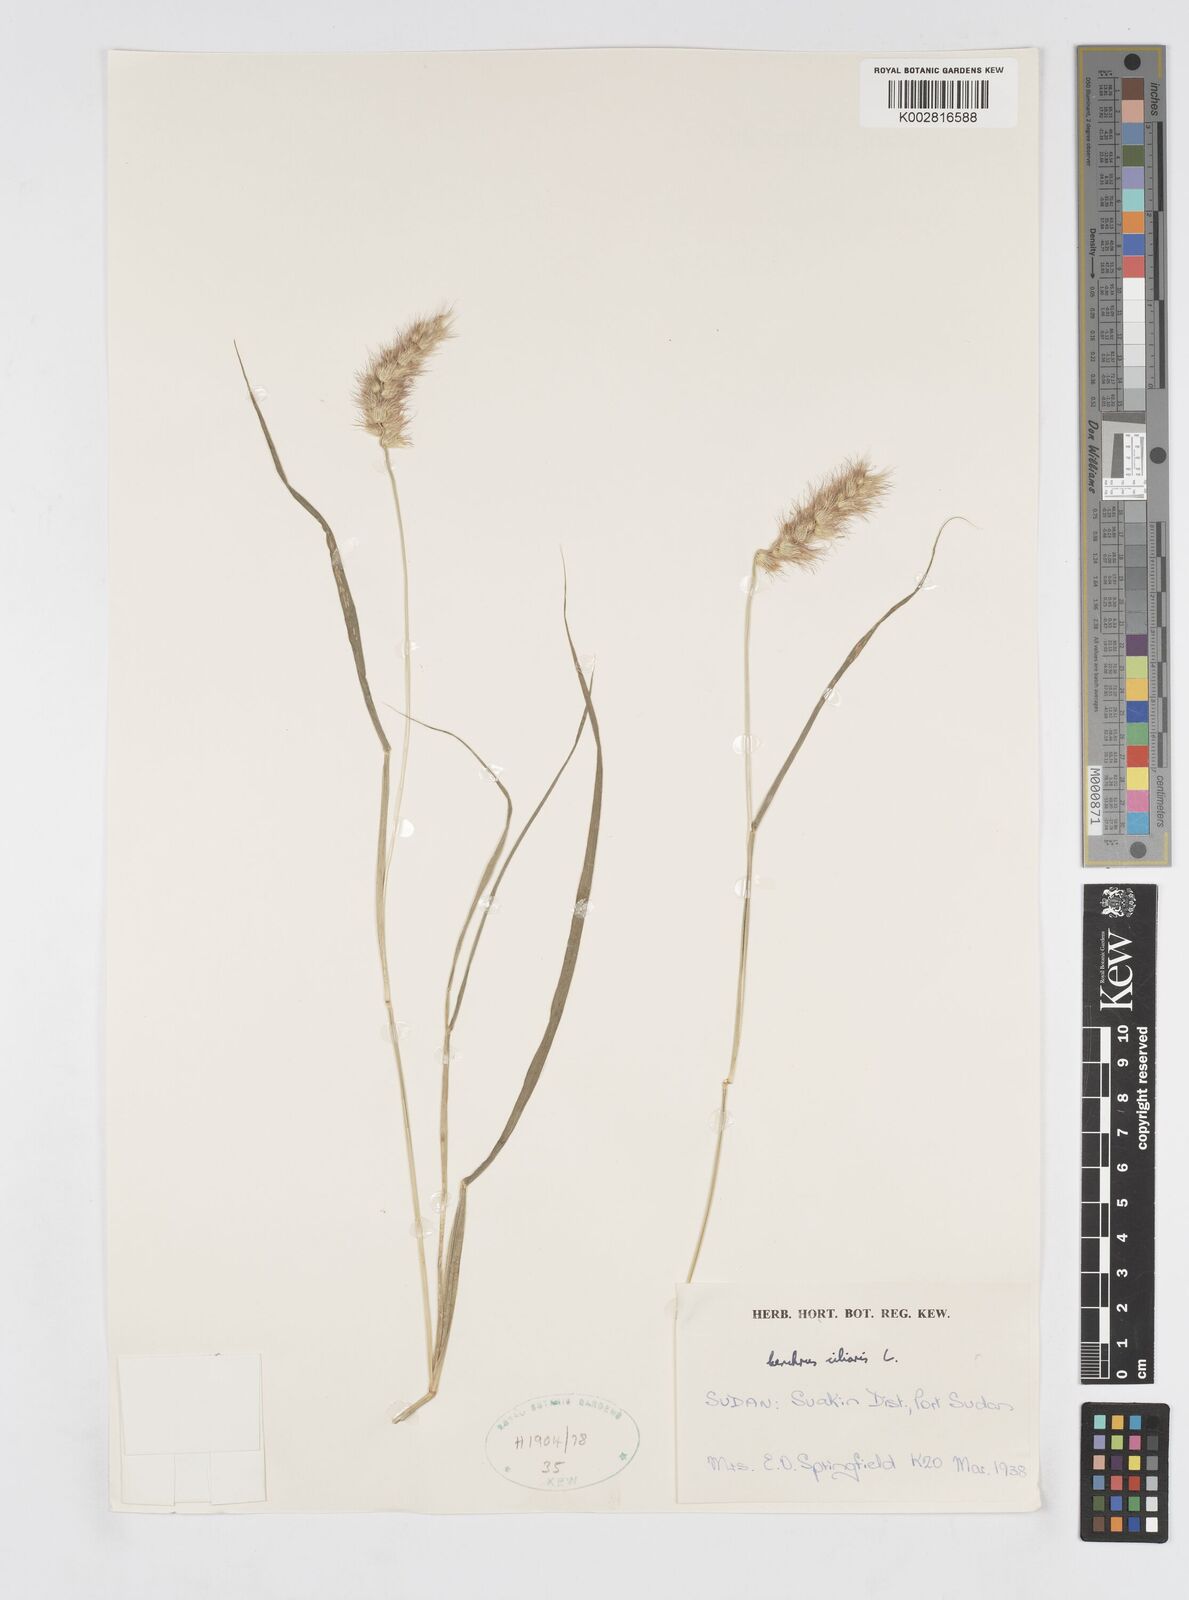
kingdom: Plantae
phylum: Tracheophyta
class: Liliopsida
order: Poales
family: Poaceae
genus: Cenchrus
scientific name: Cenchrus ciliaris
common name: Buffelgrass
